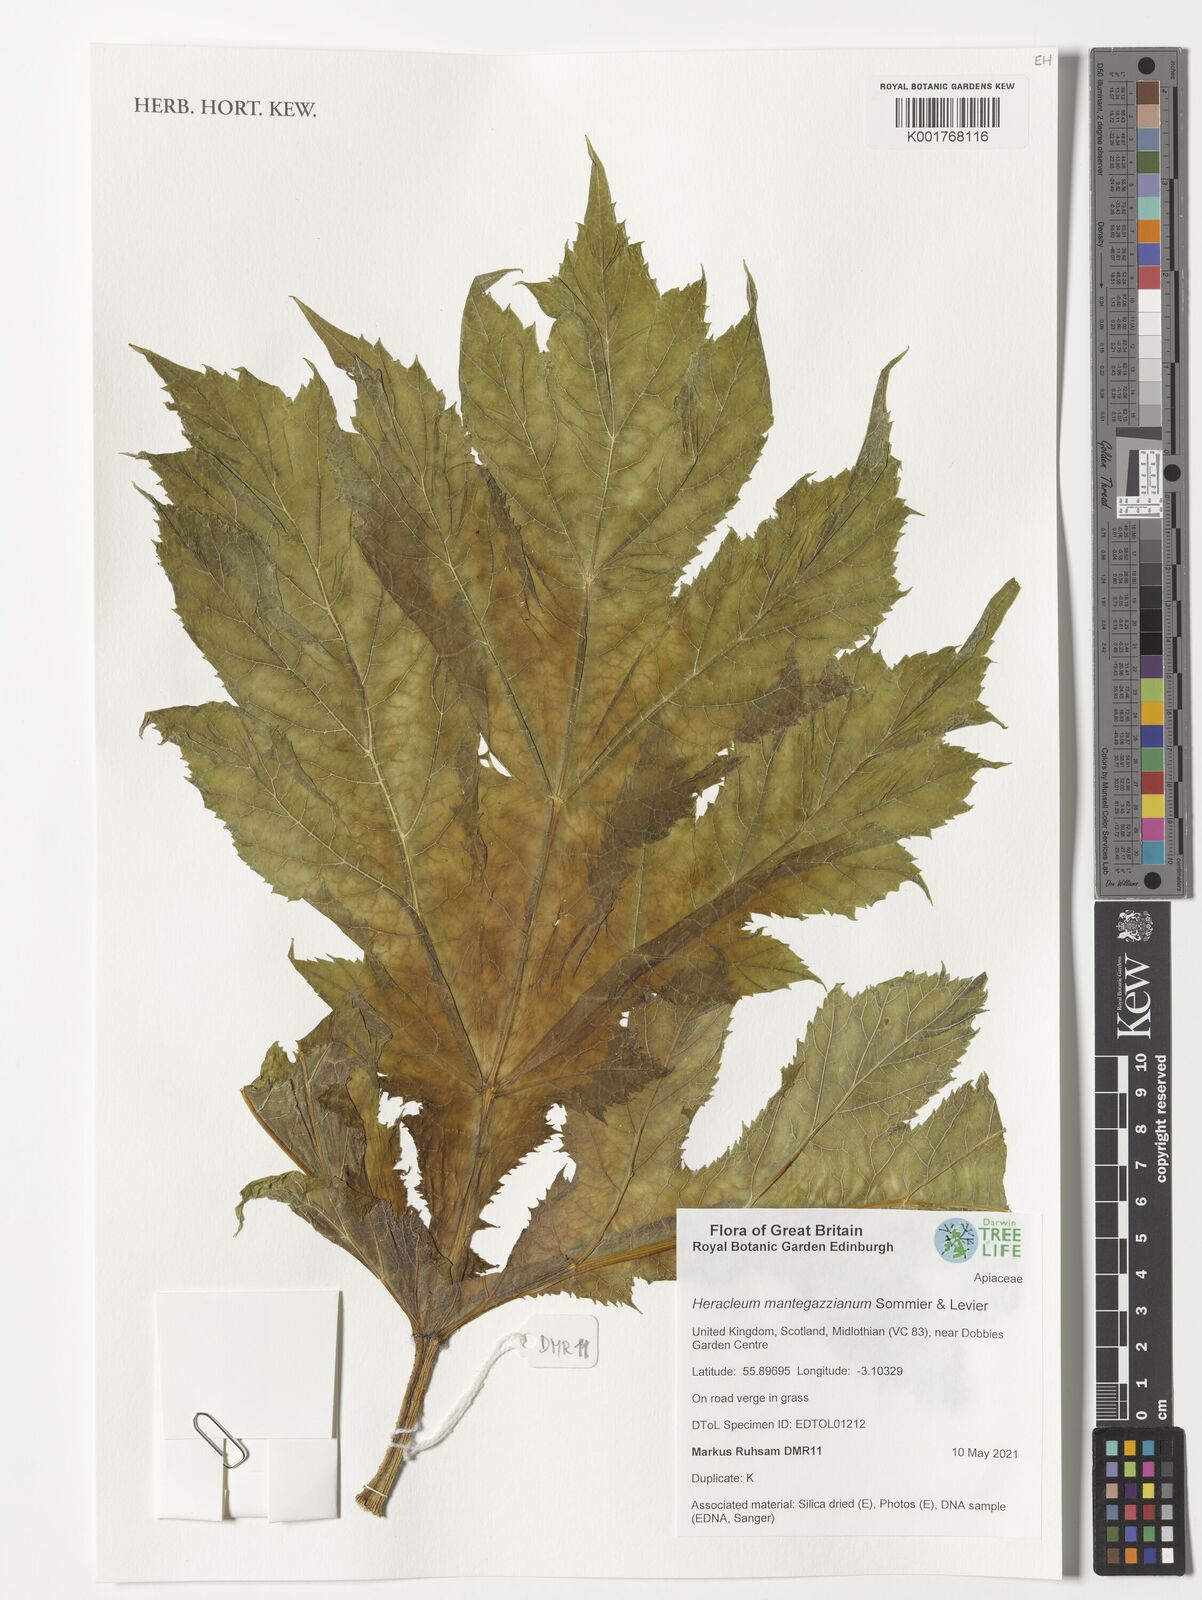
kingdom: Plantae
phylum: Tracheophyta
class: Magnoliopsida
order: Apiales
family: Apiaceae
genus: Heracleum
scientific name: Heracleum mantegazzianum
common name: Giant hogweed
